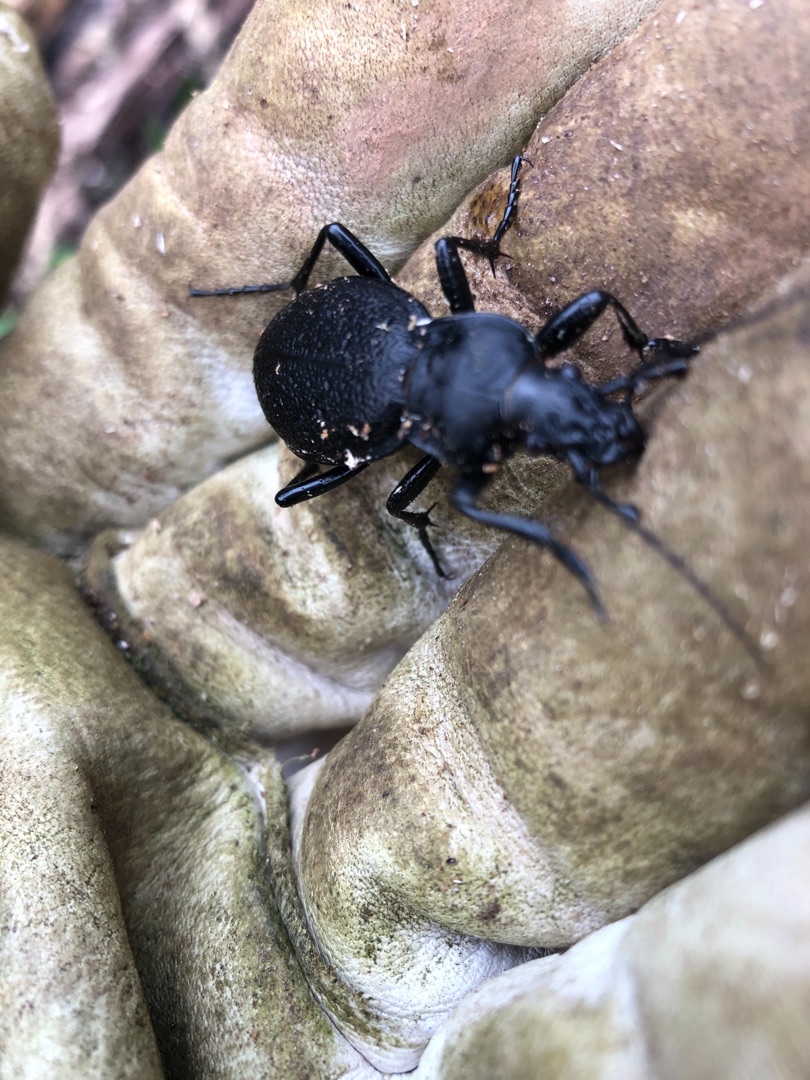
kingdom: Animalia
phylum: Arthropoda
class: Insecta
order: Coleoptera
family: Carabidae
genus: Carabus
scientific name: Carabus coriaceus
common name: Læderløber
